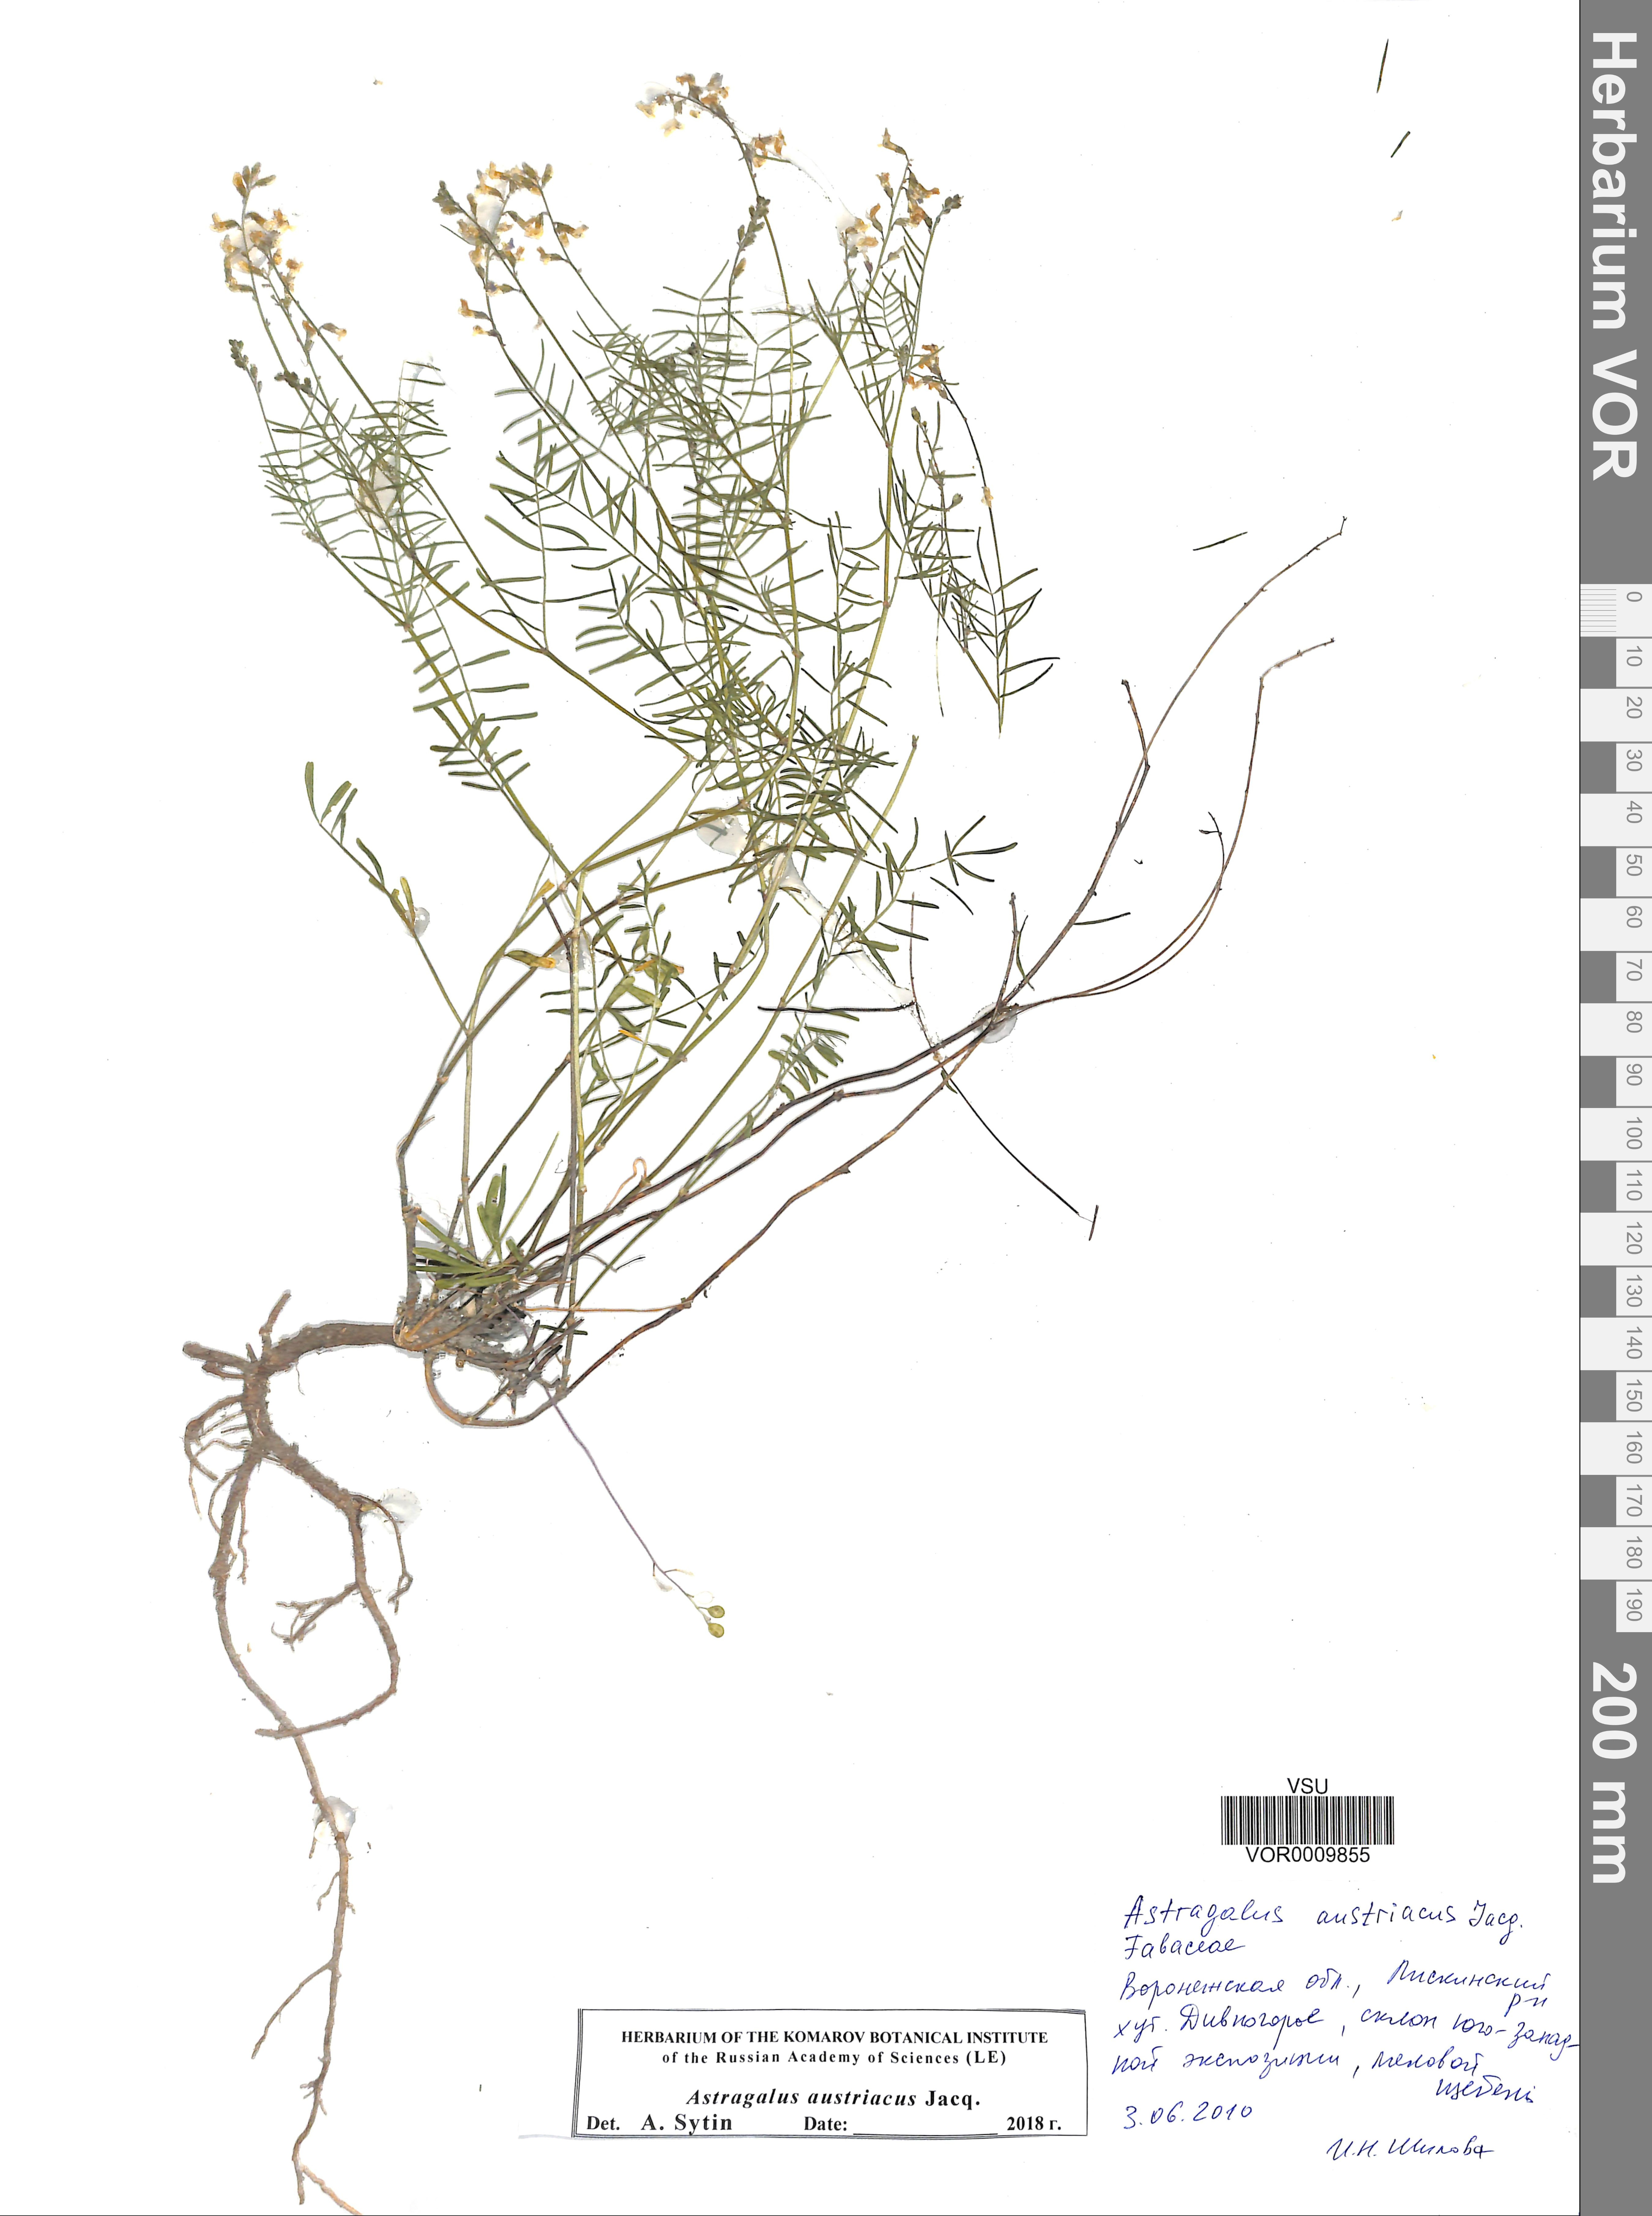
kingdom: Plantae
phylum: Tracheophyta
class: Magnoliopsida
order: Fabales
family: Fabaceae
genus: Astragalus
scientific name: Astragalus austriacus
